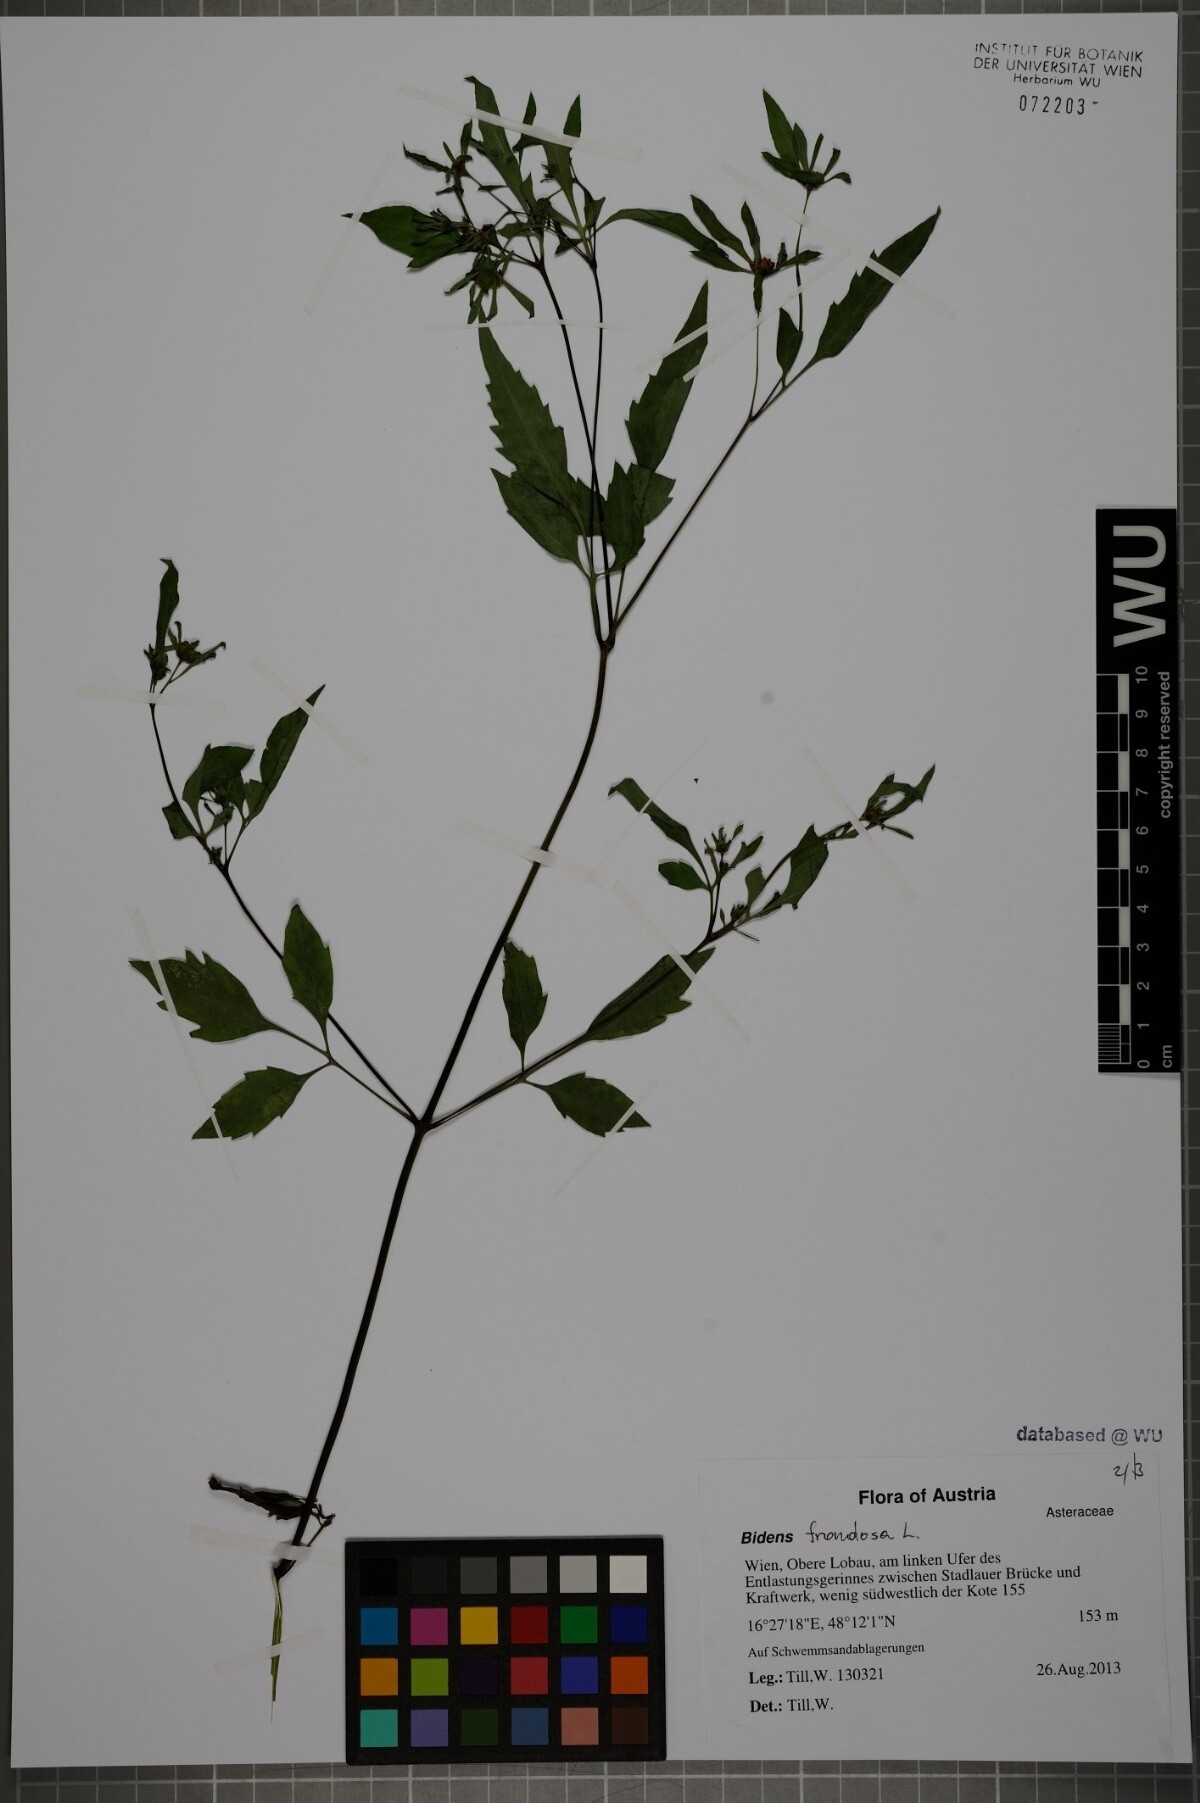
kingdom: Plantae
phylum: Tracheophyta
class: Magnoliopsida
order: Asterales
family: Asteraceae
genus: Bidens
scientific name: Bidens frondosa
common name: Beggarticks
